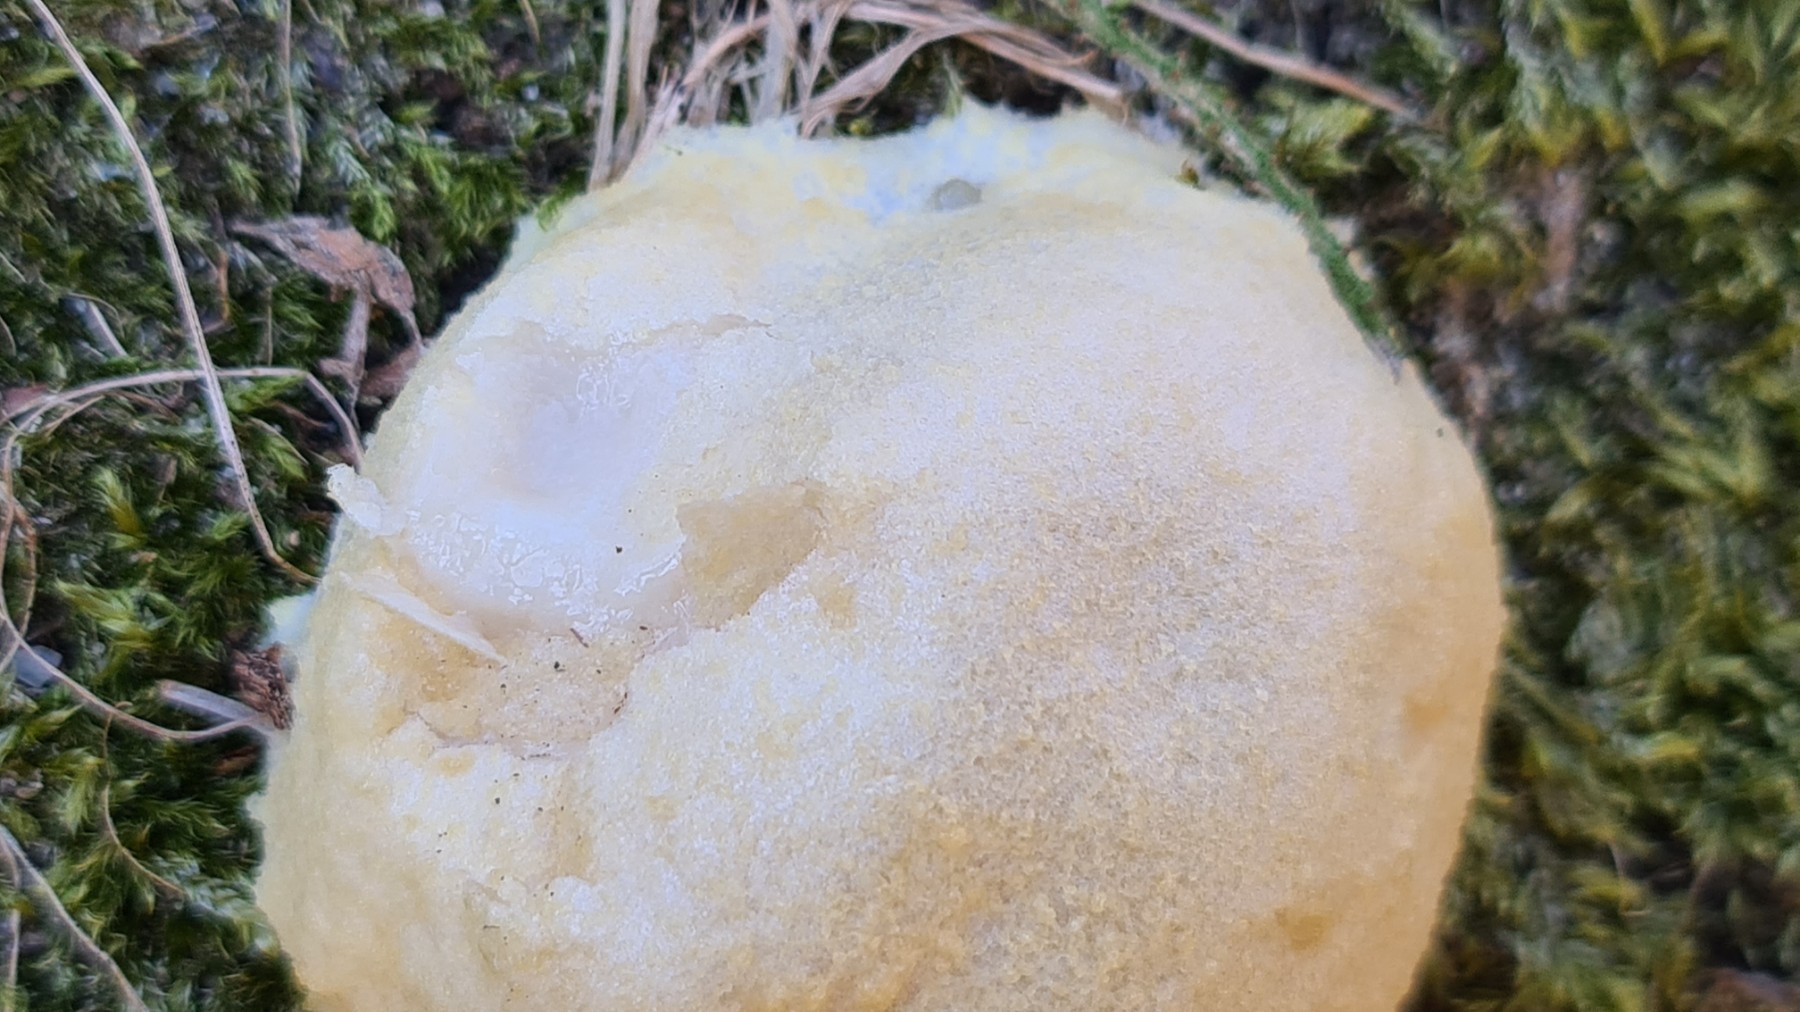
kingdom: Protozoa
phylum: Mycetozoa
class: Myxomycetes
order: Cribrariales
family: Tubiferaceae
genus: Reticularia
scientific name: Reticularia lycoperdon
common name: skinnende støvpude
